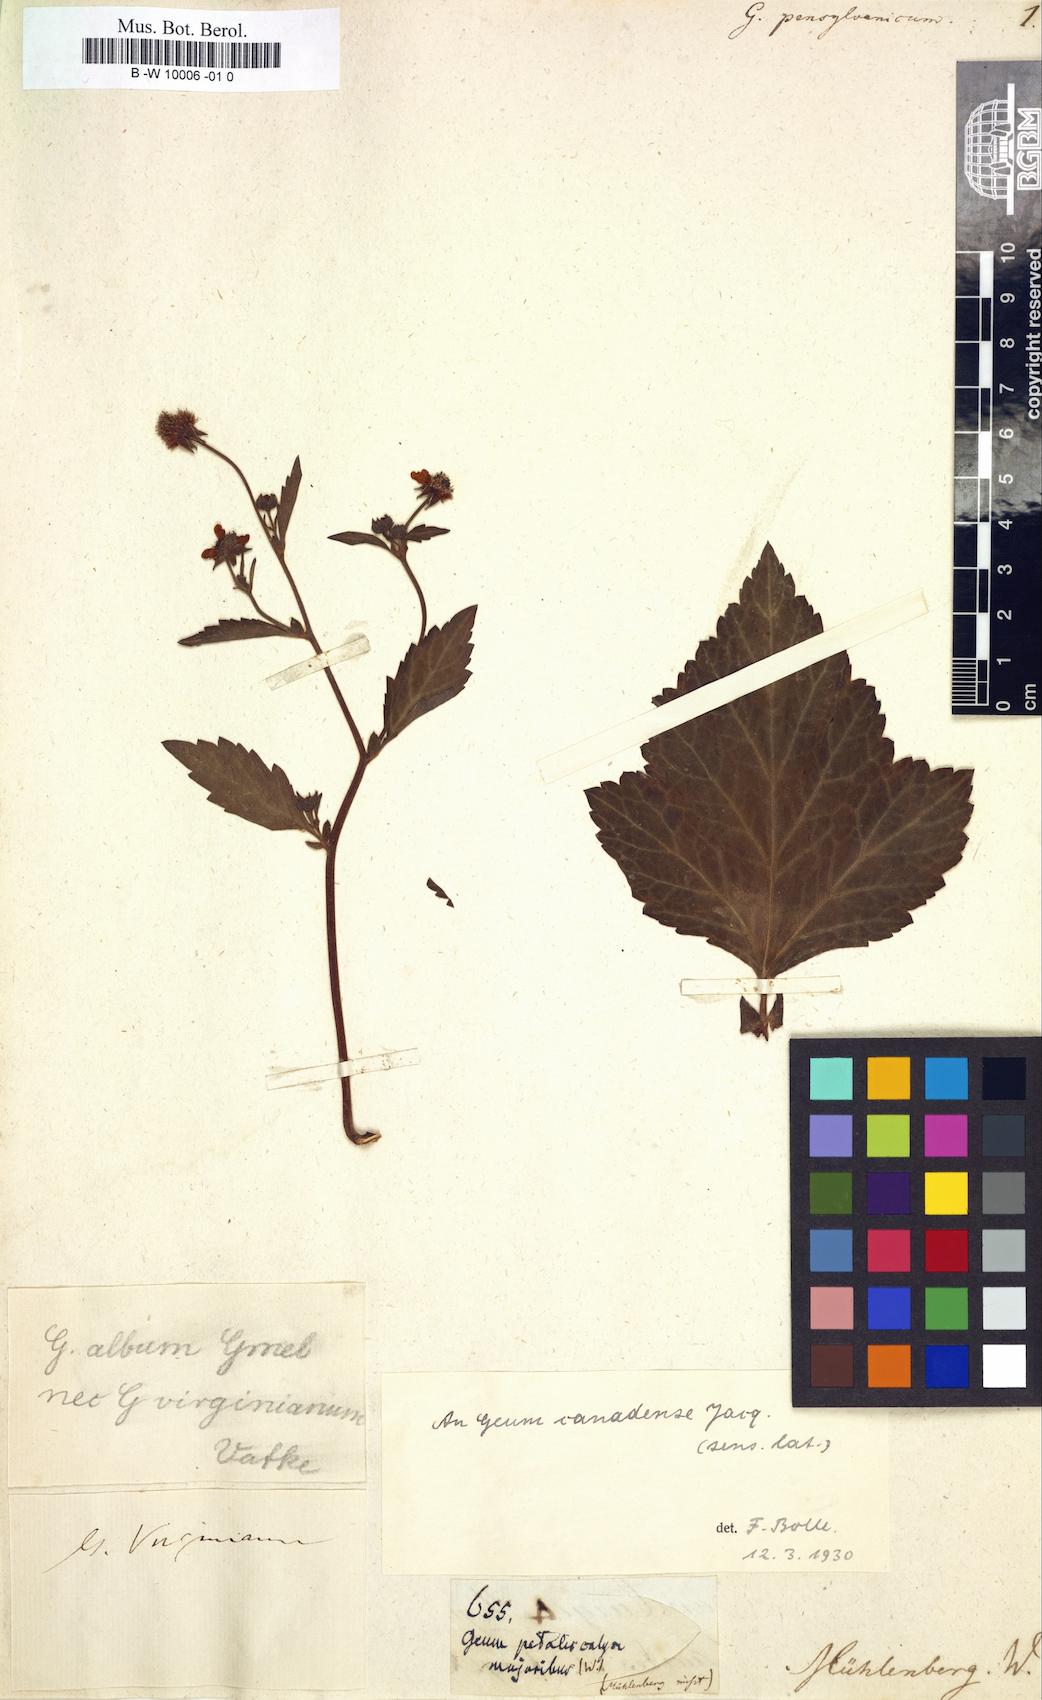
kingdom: Plantae
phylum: Tracheophyta
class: Magnoliopsida
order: Rosales
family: Rosaceae
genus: Geum
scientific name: Geum
